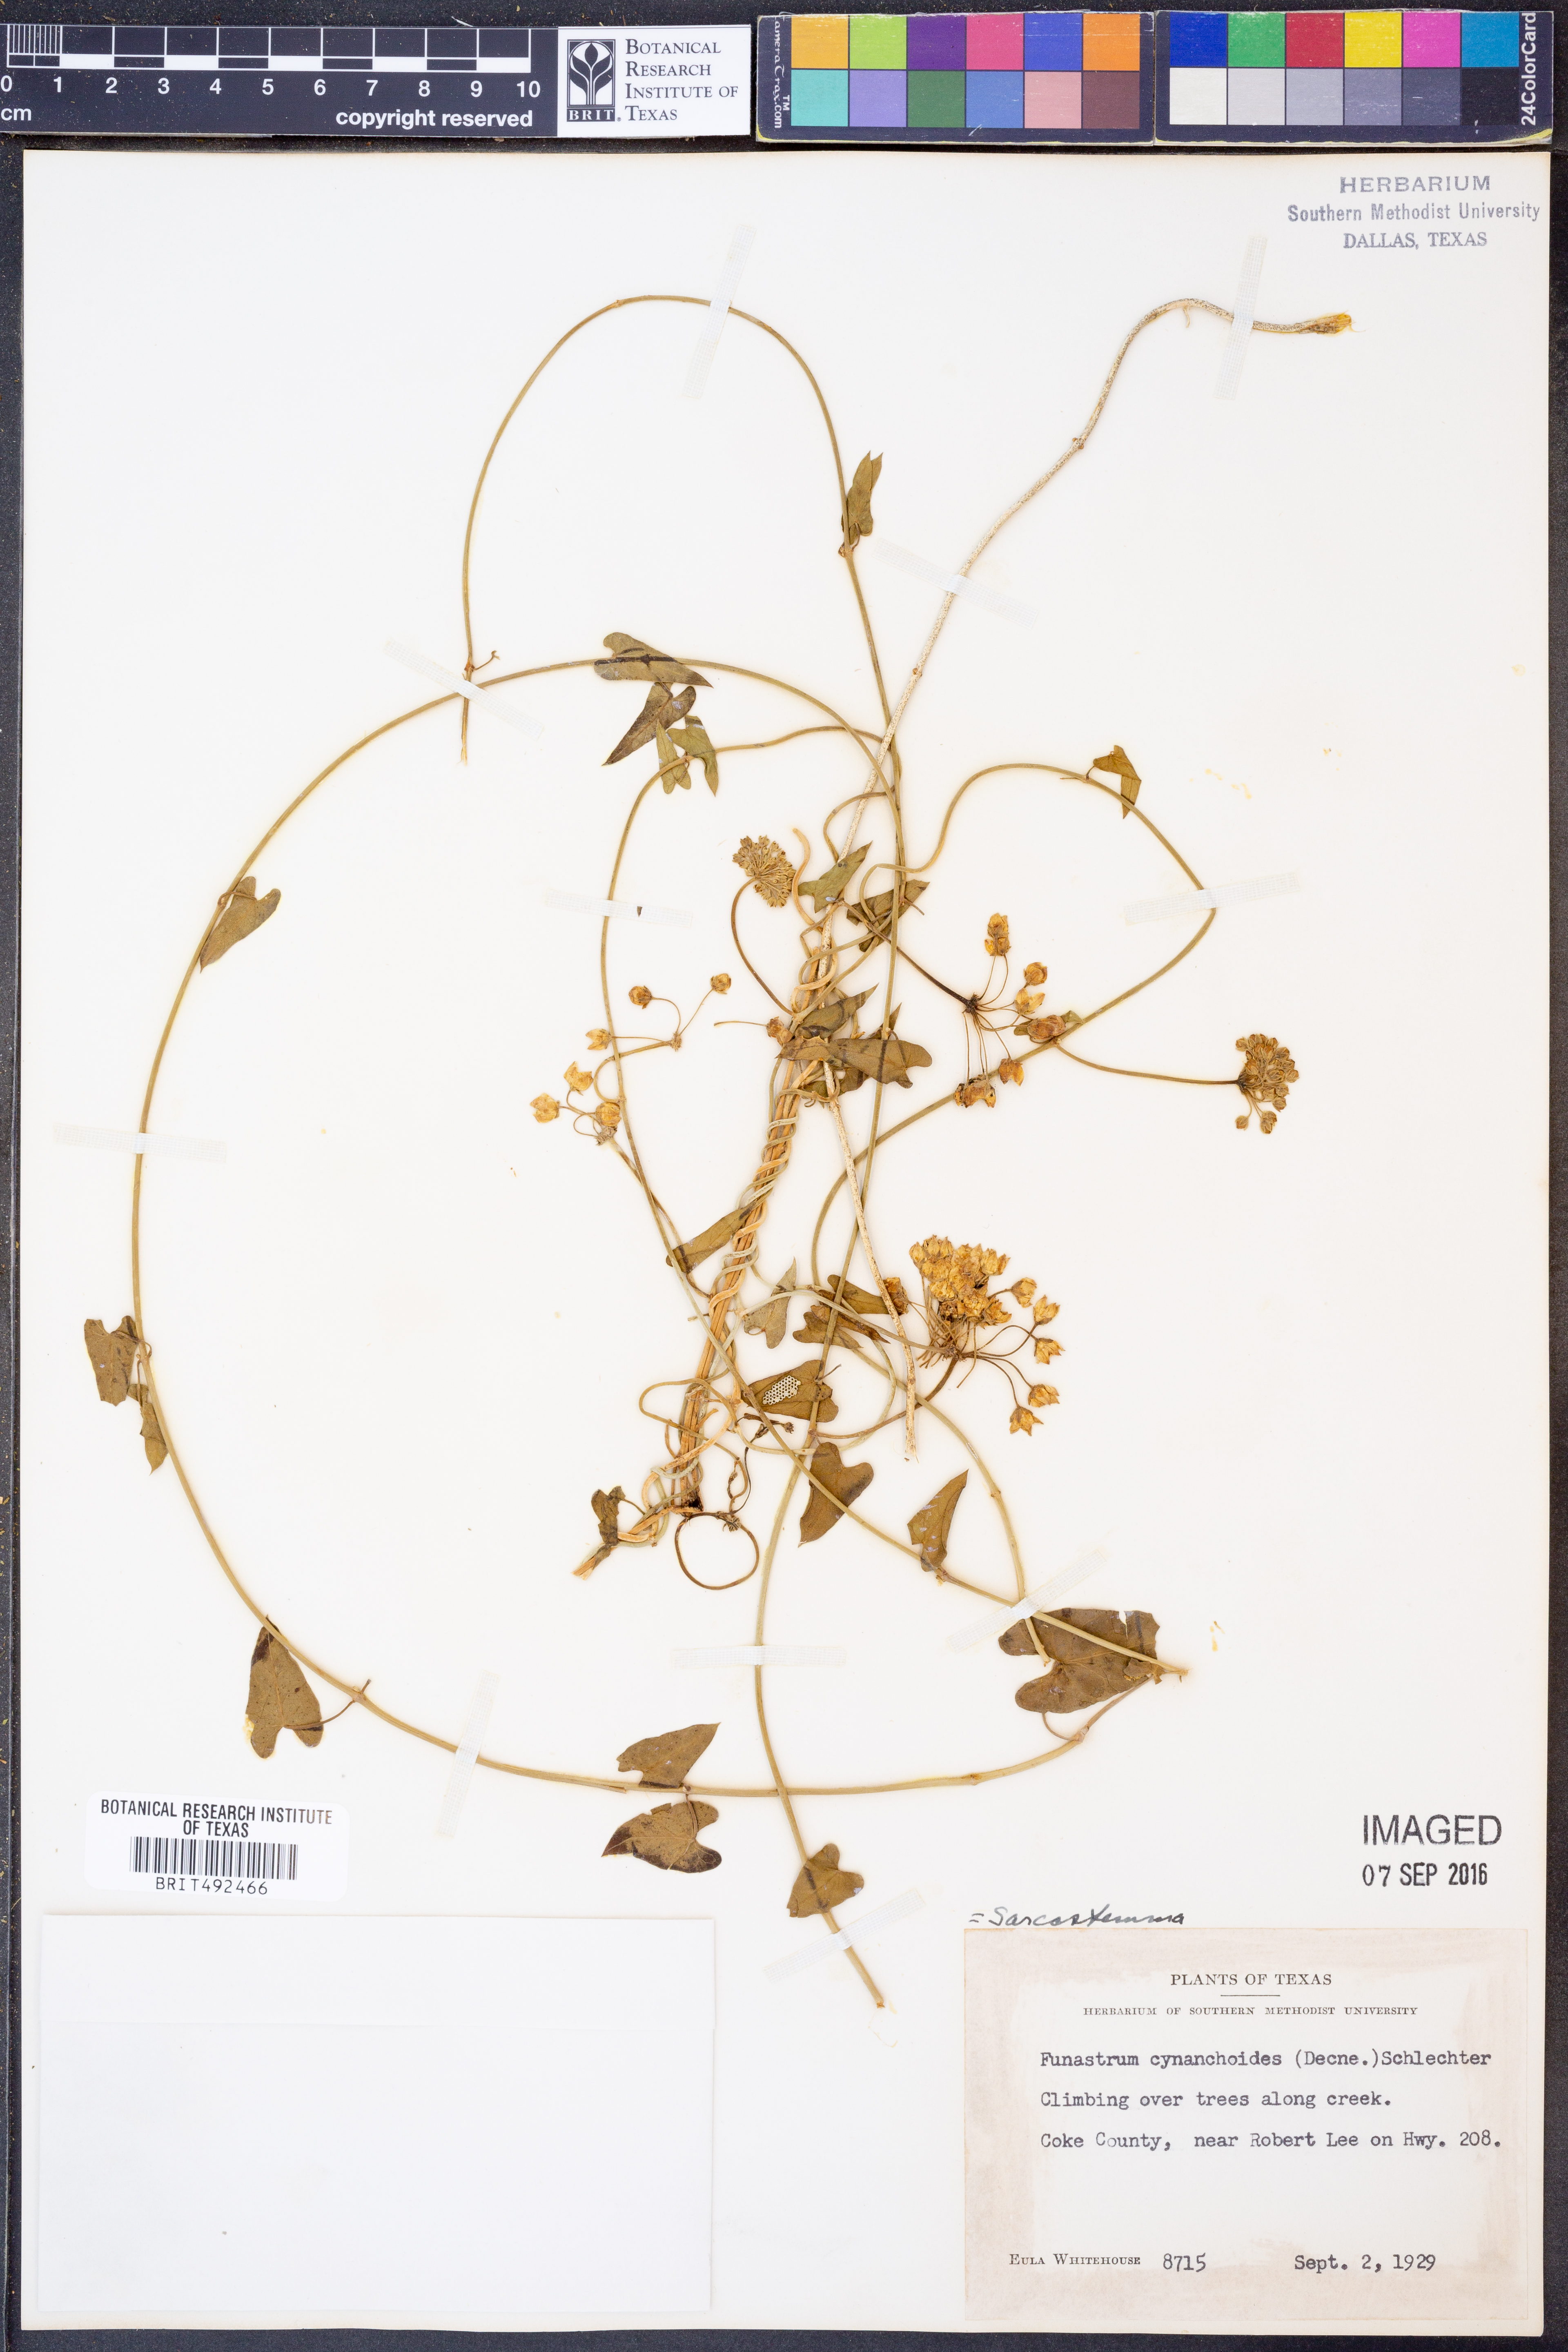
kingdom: Plantae
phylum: Tracheophyta
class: Magnoliopsida
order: Gentianales
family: Apocynaceae
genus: Funastrum
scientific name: Funastrum cynanchoides
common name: Climbing-milkweed
